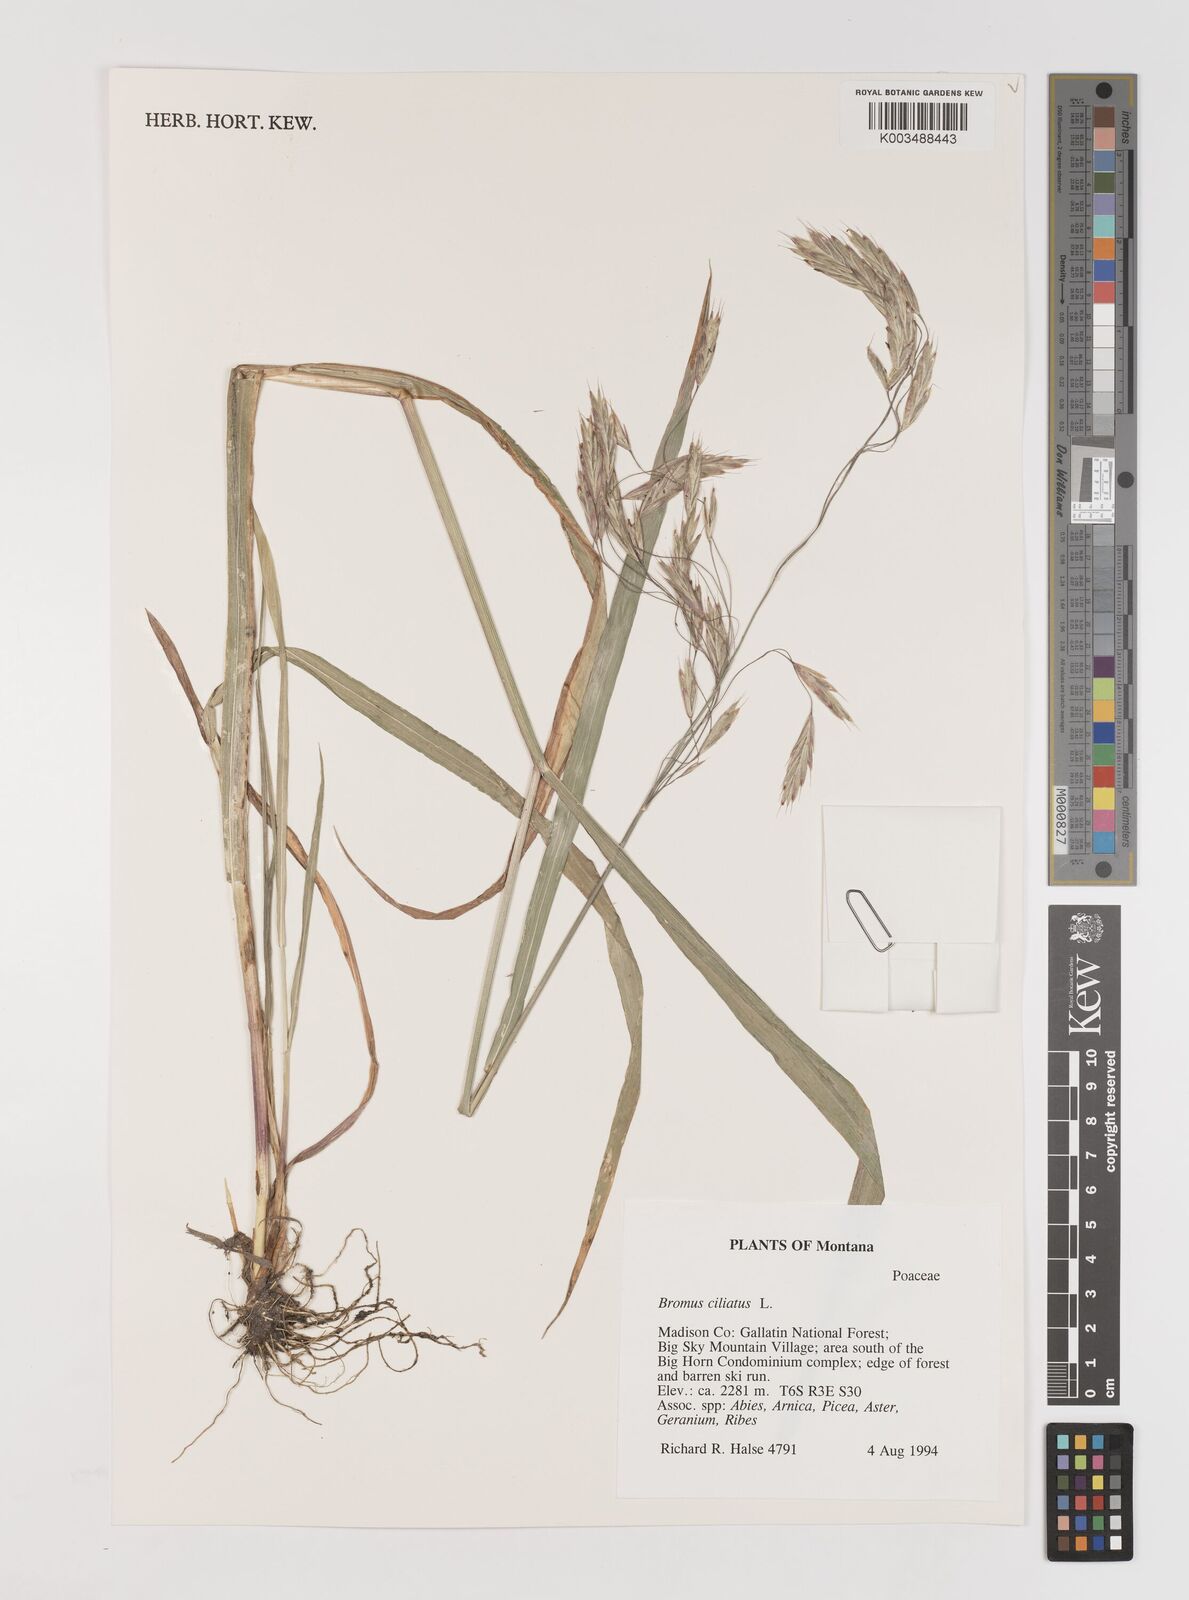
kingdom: Plantae
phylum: Tracheophyta
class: Liliopsida
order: Poales
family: Poaceae
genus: Bromus
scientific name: Bromus ciliatus
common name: Fringe brome
